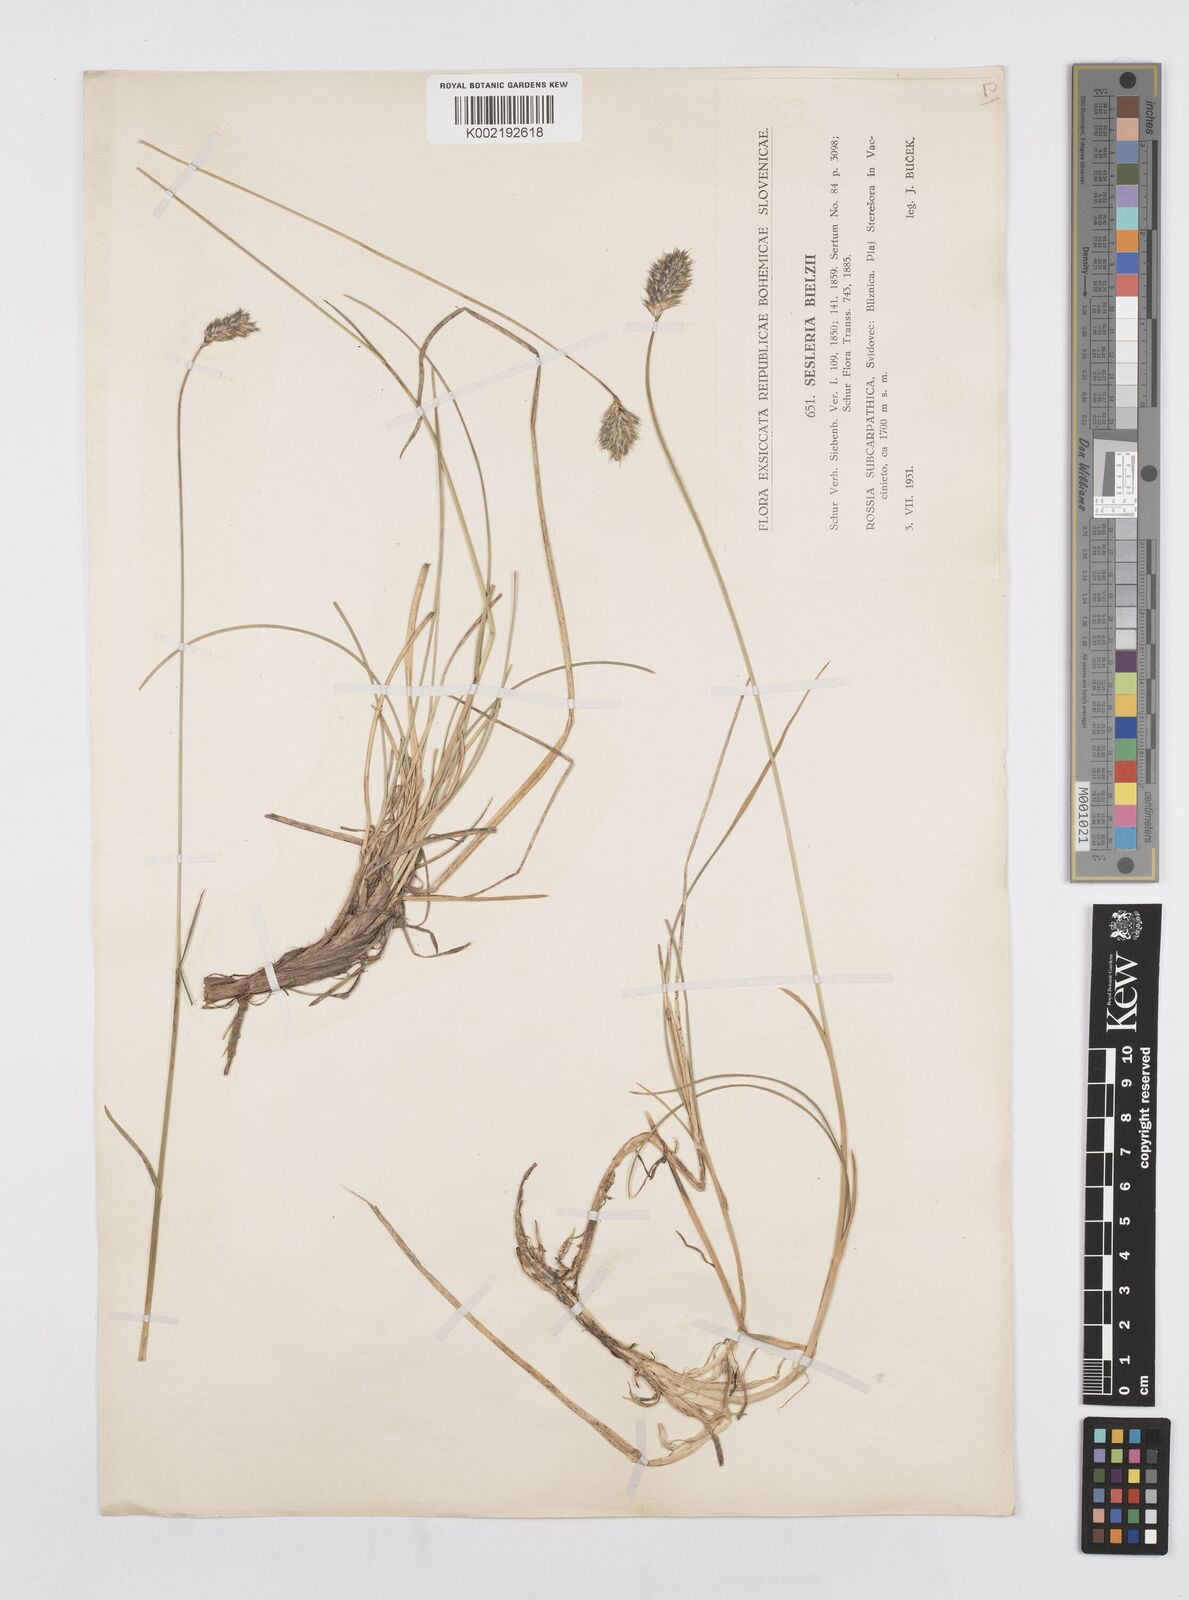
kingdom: Plantae
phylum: Tracheophyta
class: Liliopsida
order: Poales
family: Poaceae
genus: Sesleria
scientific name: Sesleria bielzii
